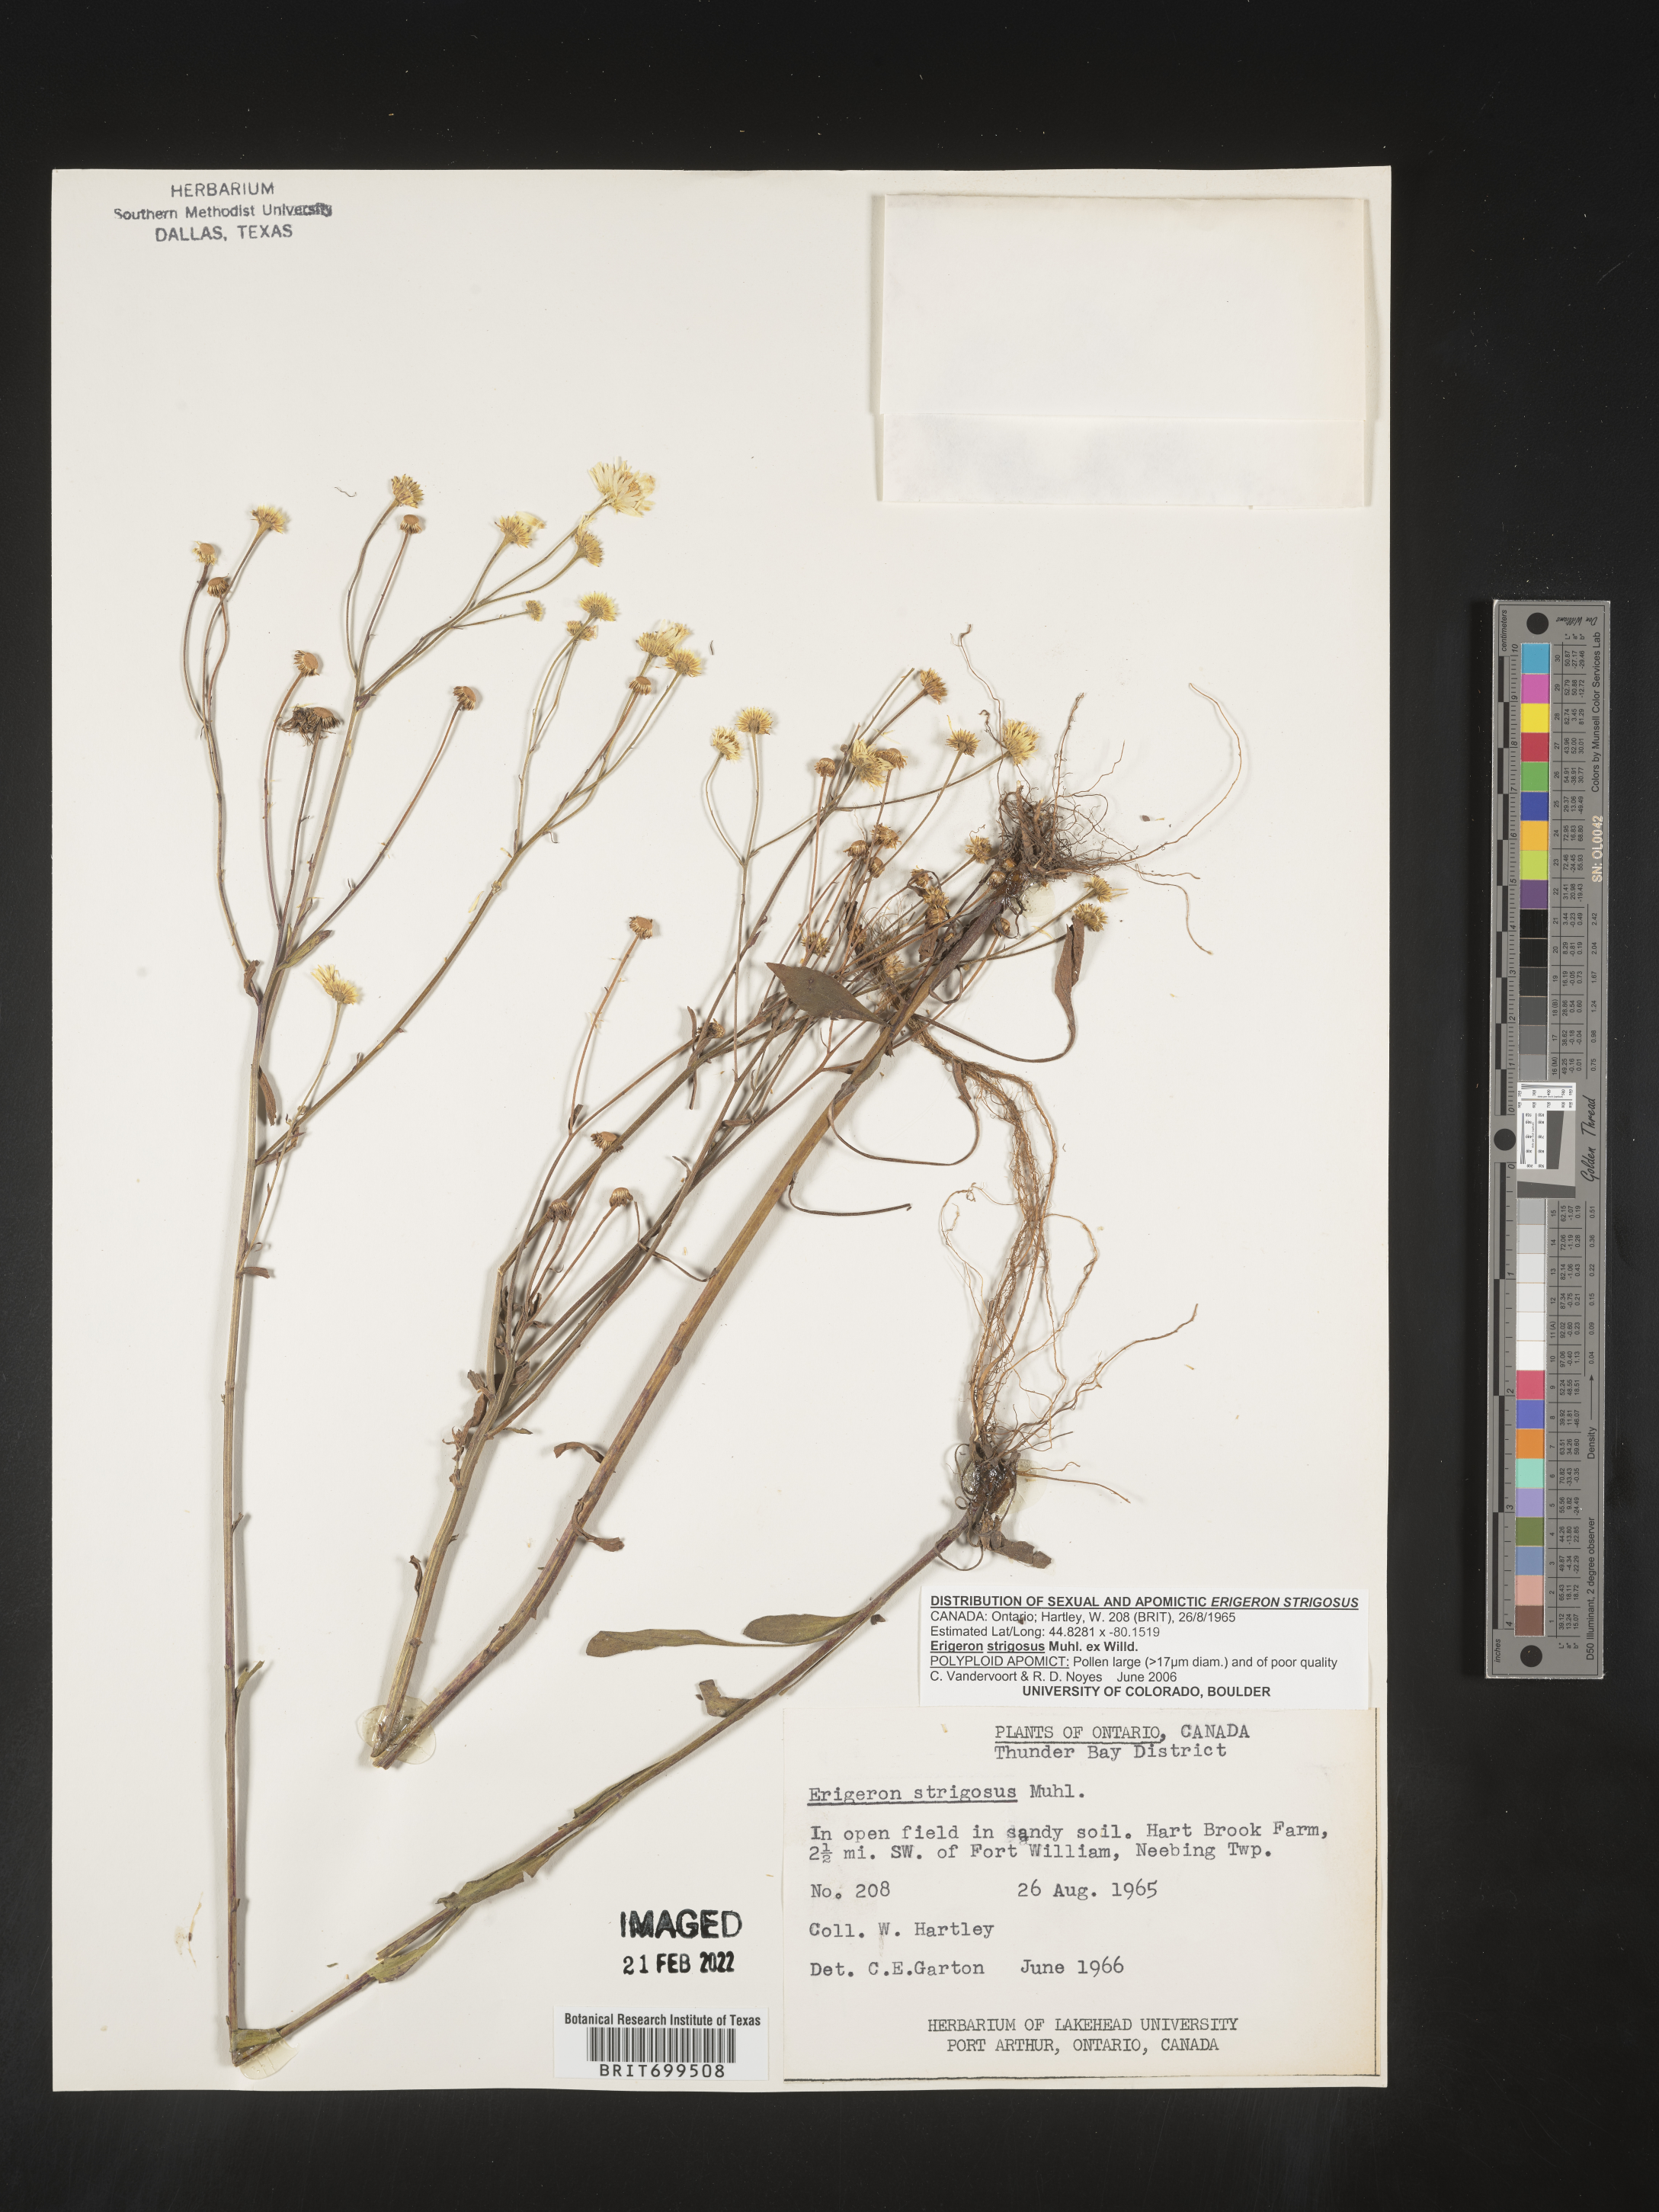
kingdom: Plantae
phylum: Tracheophyta
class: Magnoliopsida
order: Asterales
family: Asteraceae
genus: Erigeron
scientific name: Erigeron strigosus
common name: Common eastern fleabane
